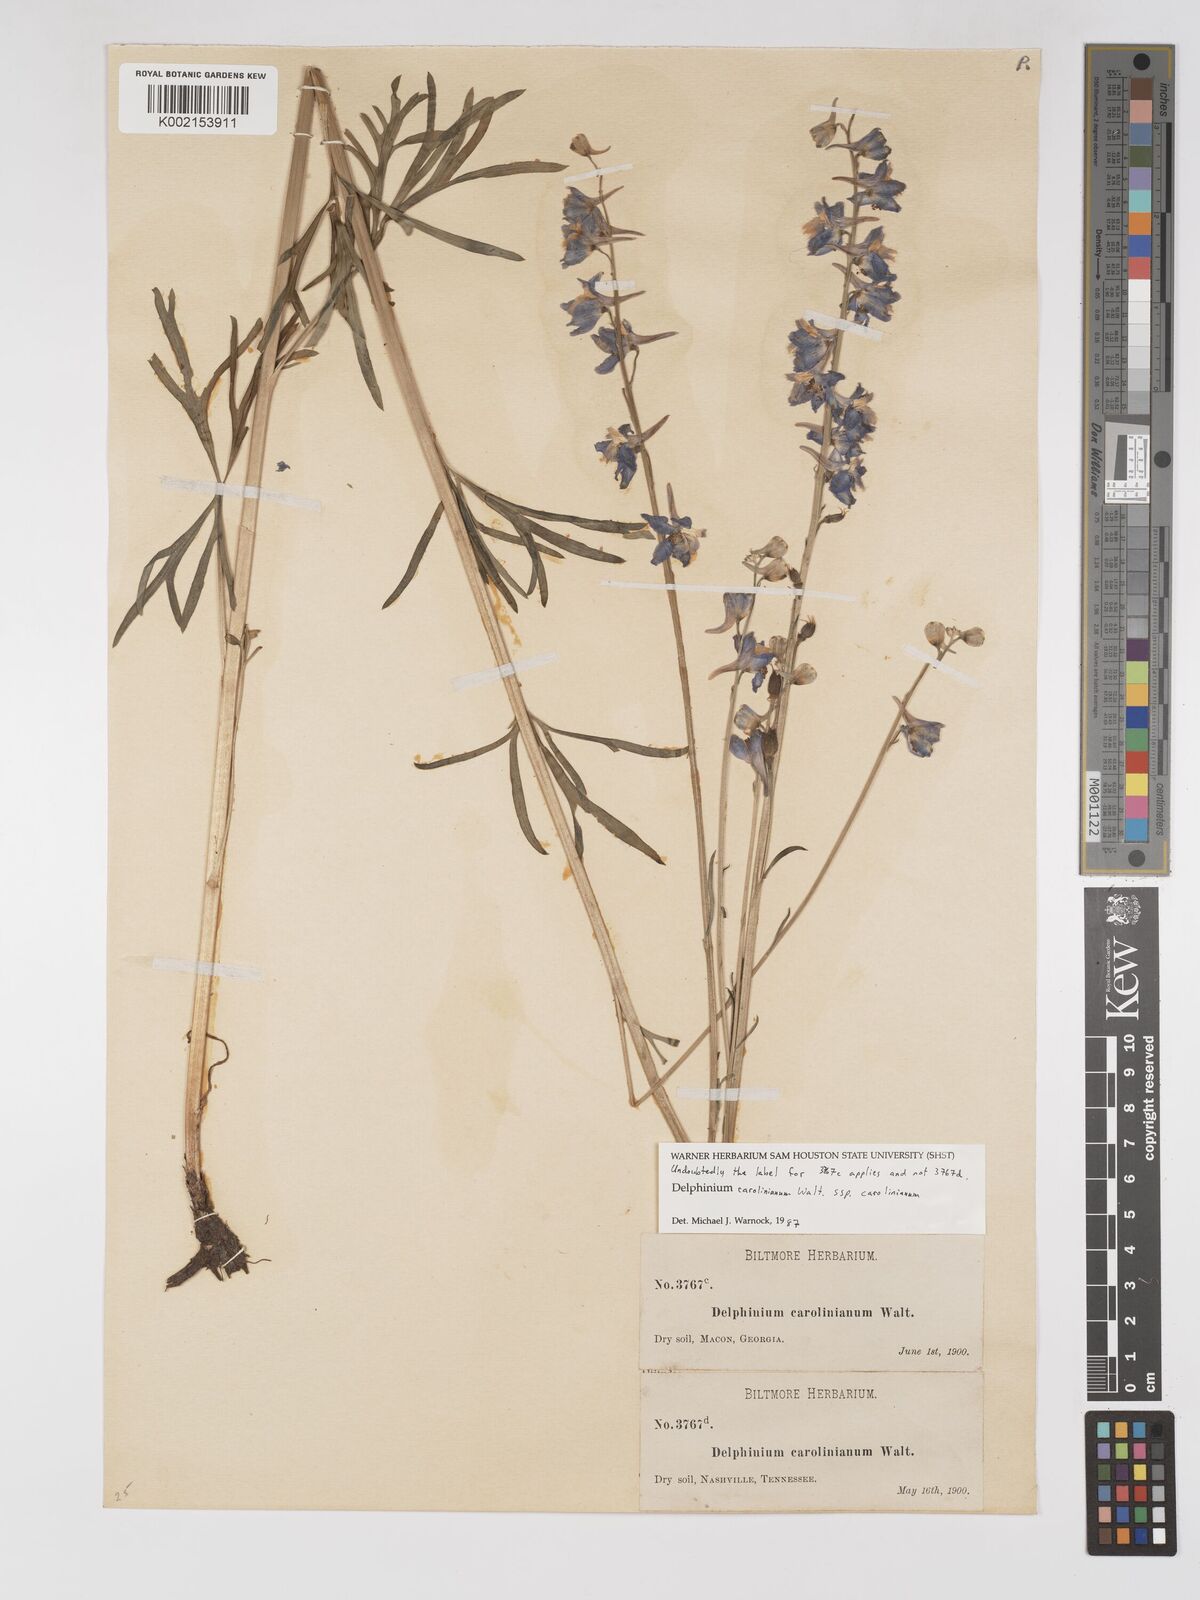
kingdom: Plantae
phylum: Tracheophyta
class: Magnoliopsida
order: Ranunculales
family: Ranunculaceae
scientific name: Ranunculaceae
